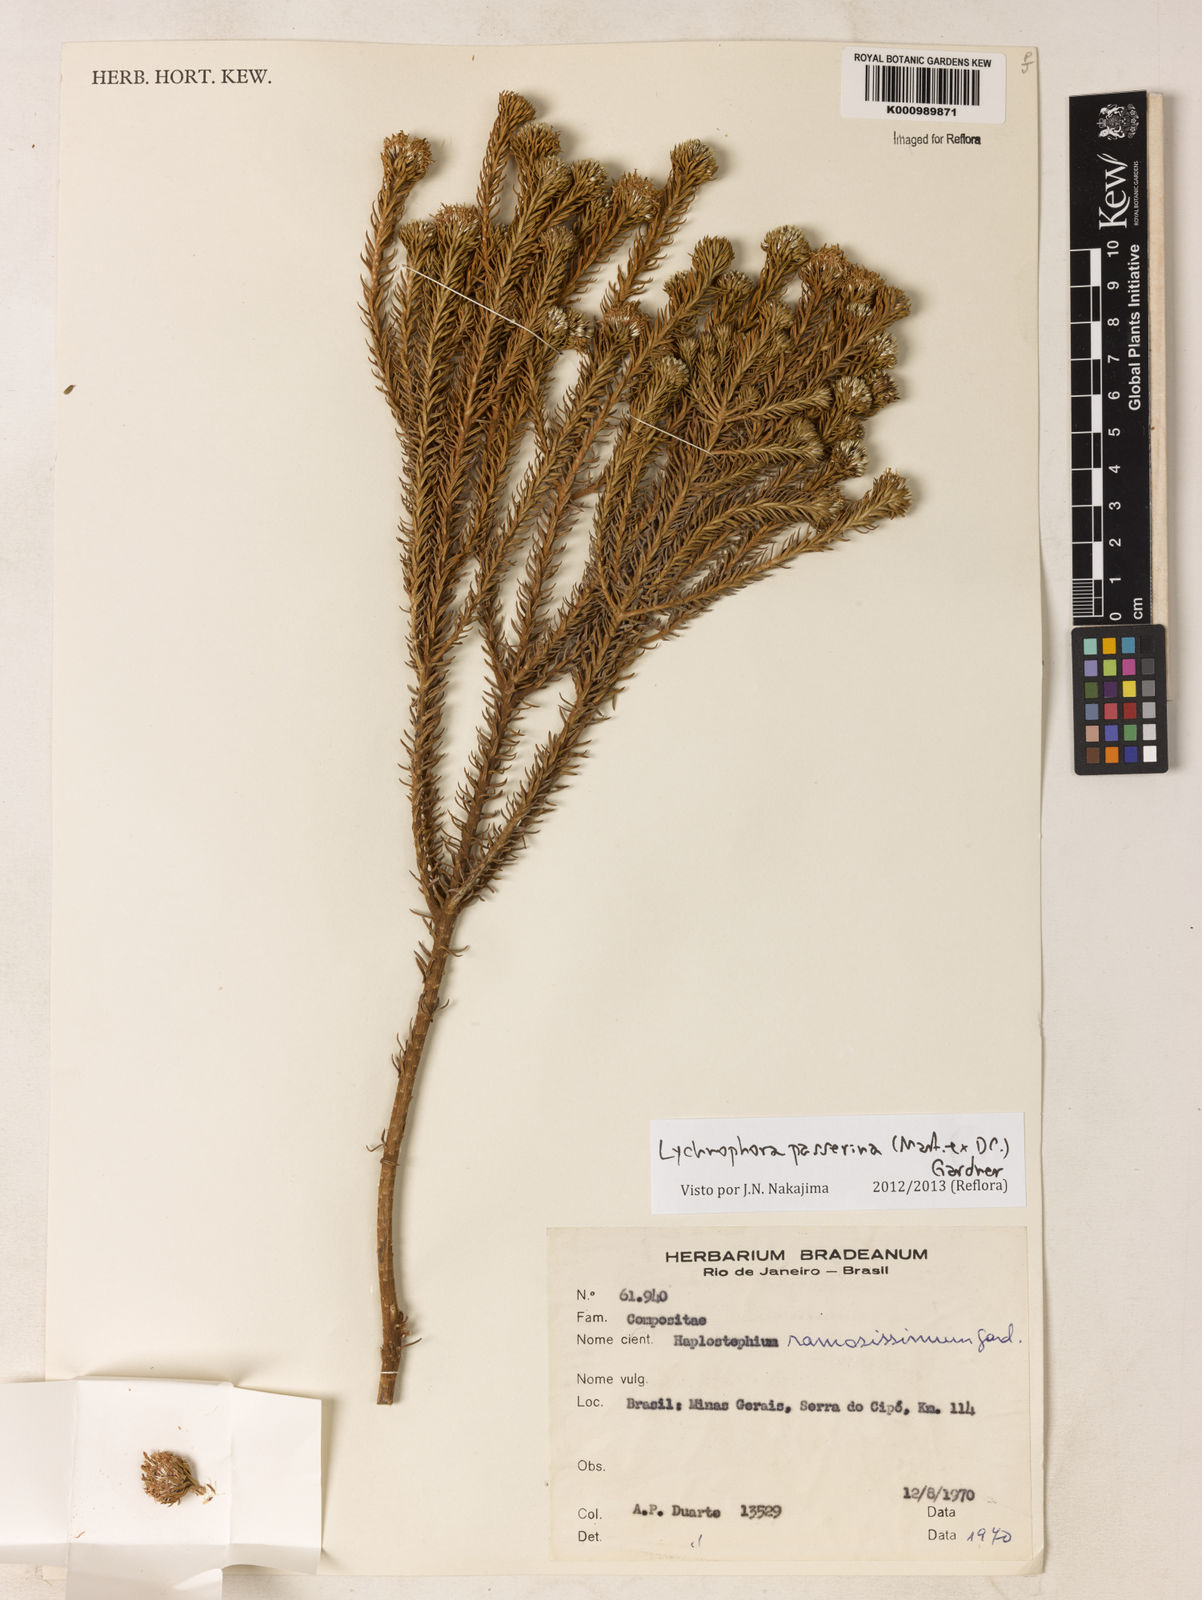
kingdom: Plantae
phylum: Tracheophyta
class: Magnoliopsida
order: Asterales
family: Asteraceae
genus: Lychnophora
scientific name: Lychnophora passerina
